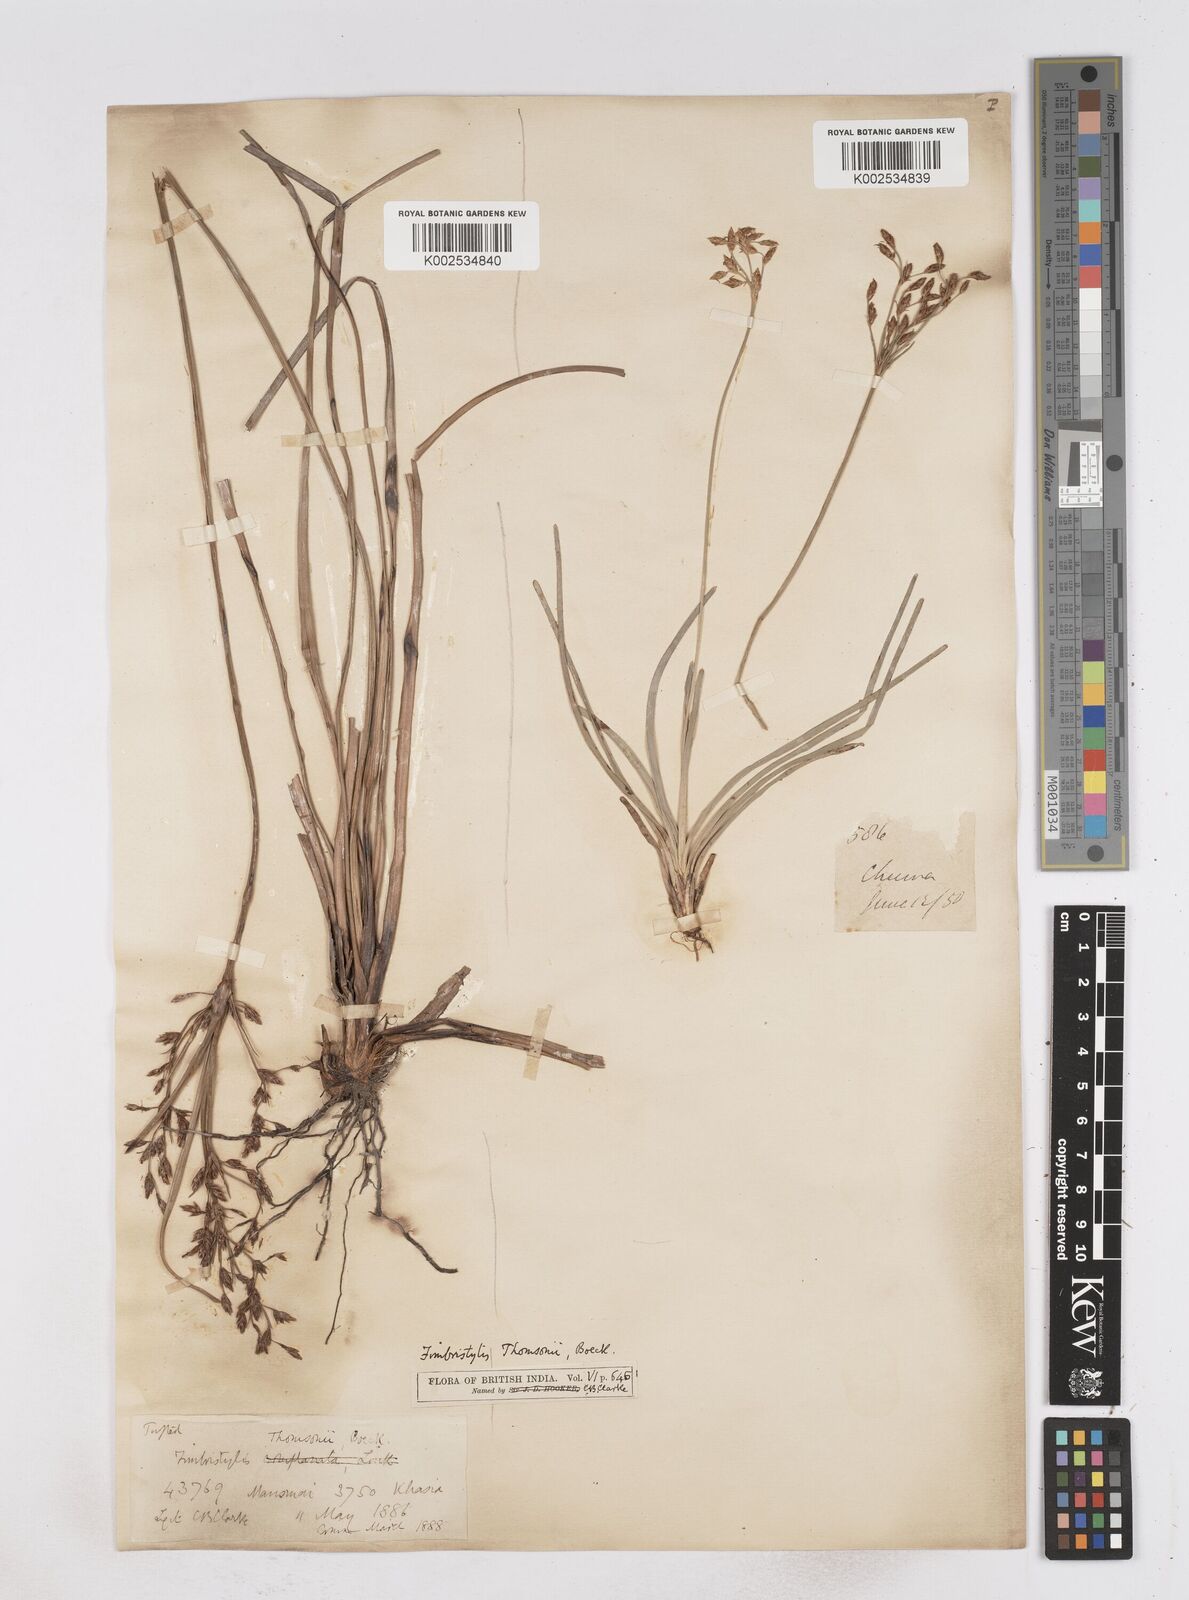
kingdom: Plantae
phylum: Tracheophyta
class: Liliopsida
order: Poales
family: Cyperaceae
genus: Fimbristylis
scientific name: Fimbristylis thomsonii
